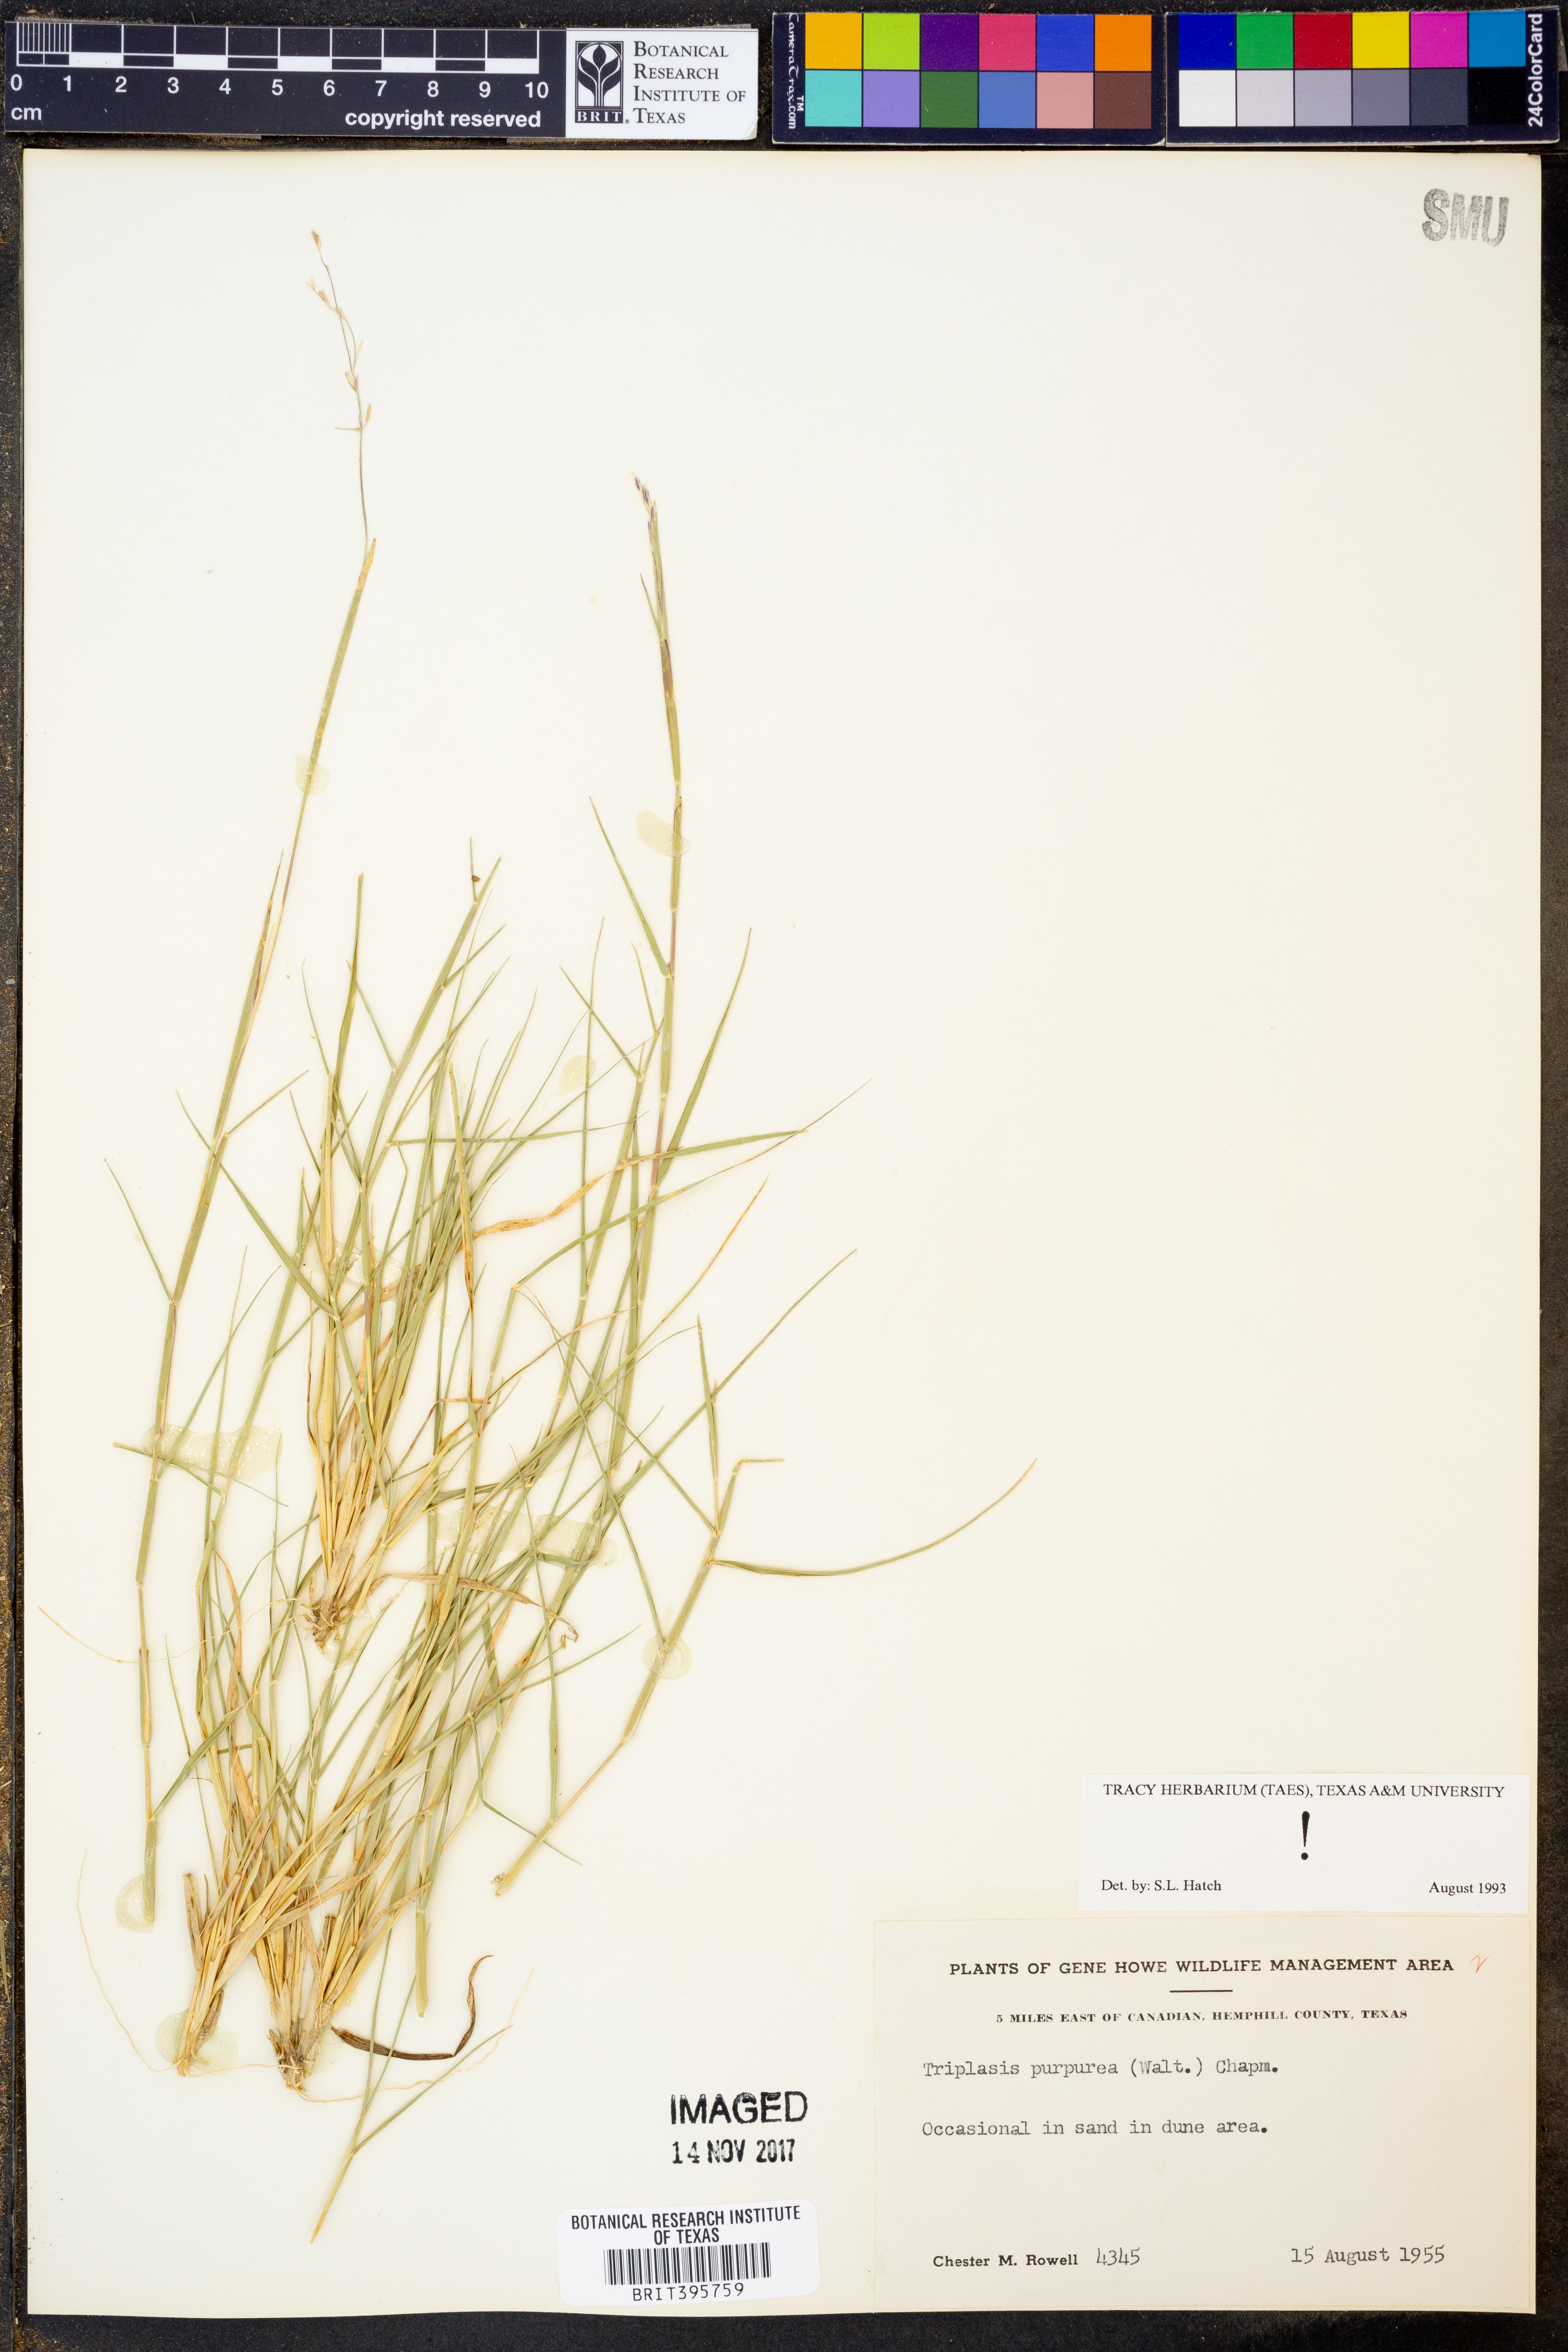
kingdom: Plantae
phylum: Tracheophyta
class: Liliopsida
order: Poales
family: Poaceae
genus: Triplasis
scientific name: Triplasis purpurea
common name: Purple sand grass
